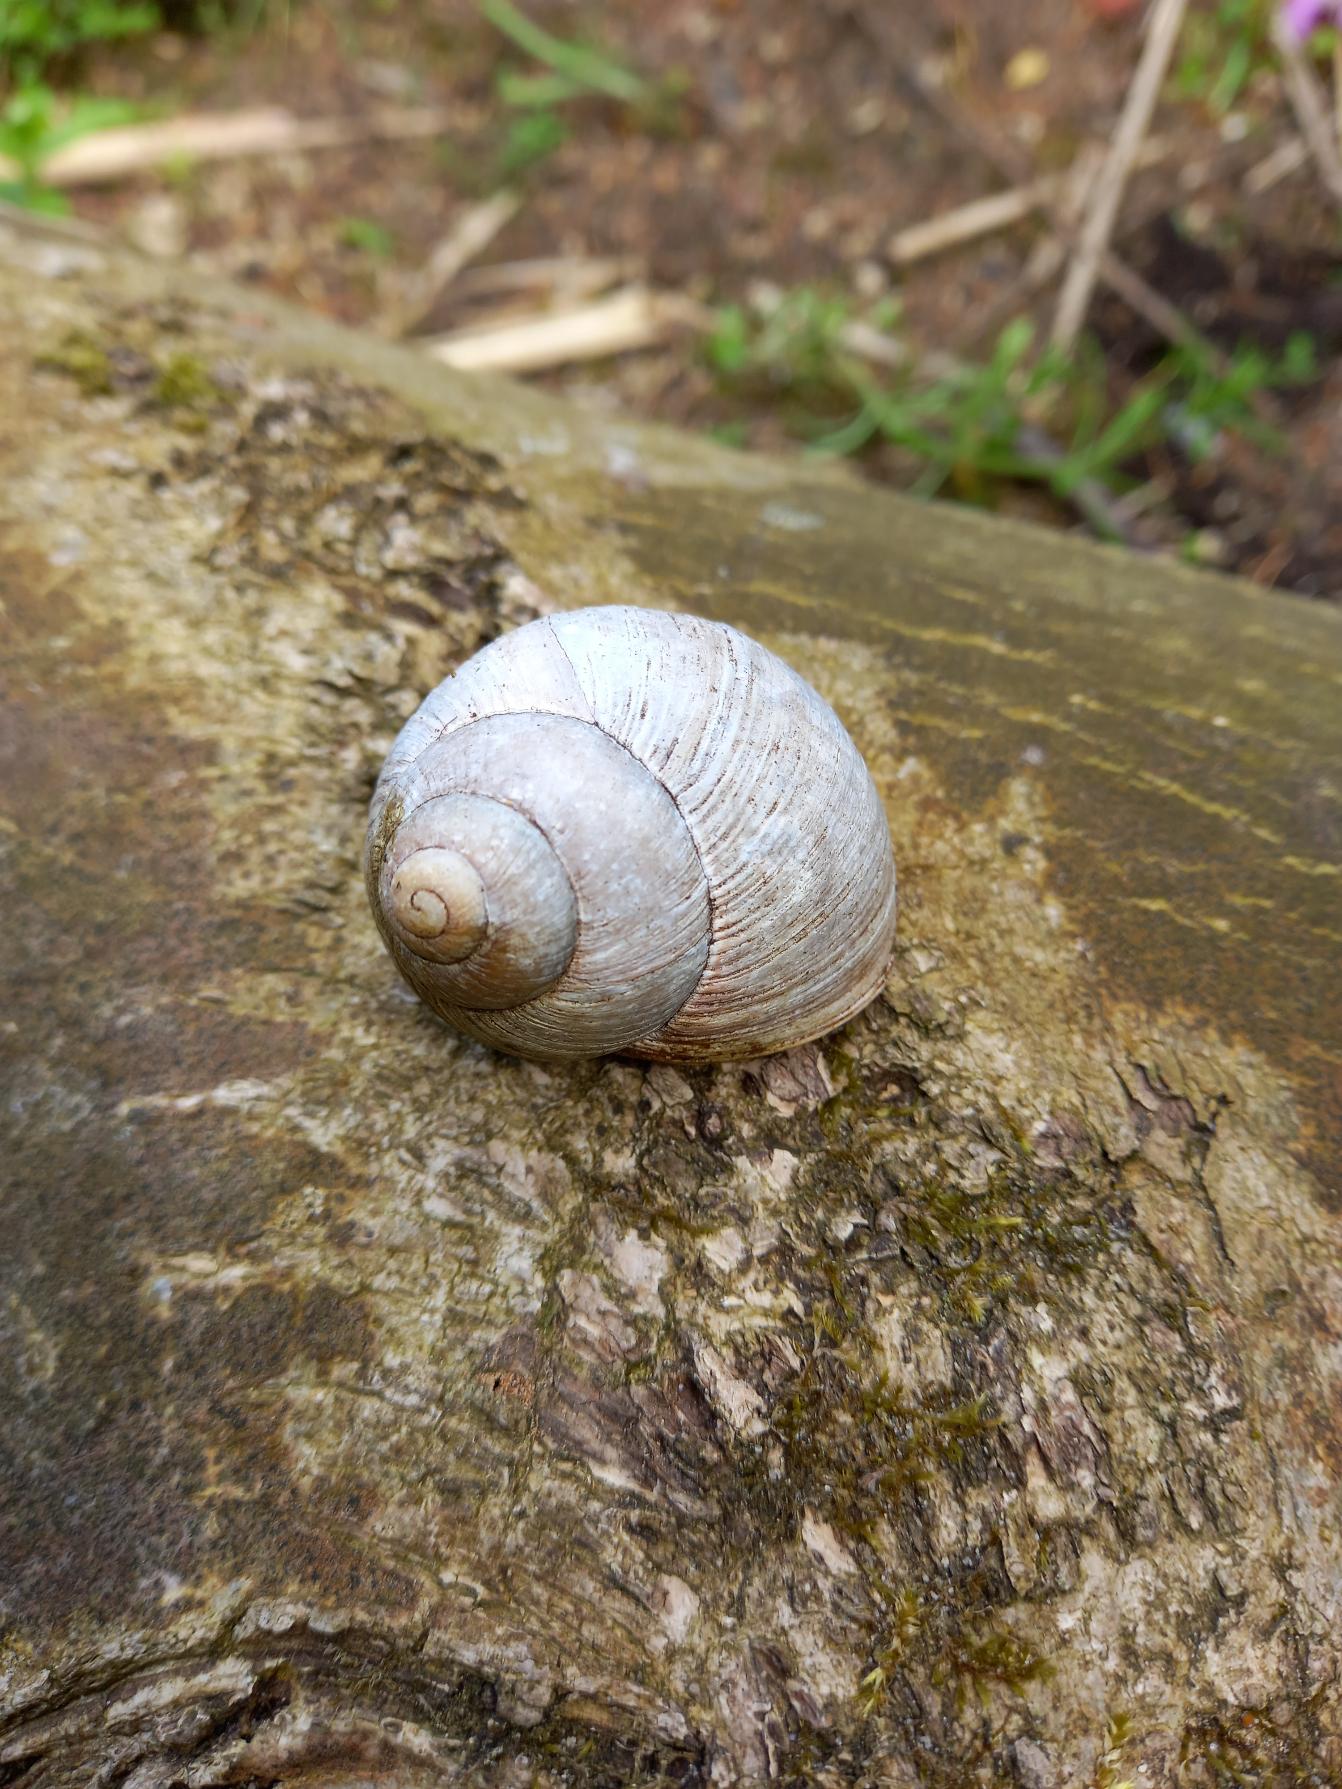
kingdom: Animalia
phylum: Mollusca
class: Gastropoda
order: Stylommatophora
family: Helicidae
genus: Helix
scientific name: Helix pomatia
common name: Vinbjergsnegl
